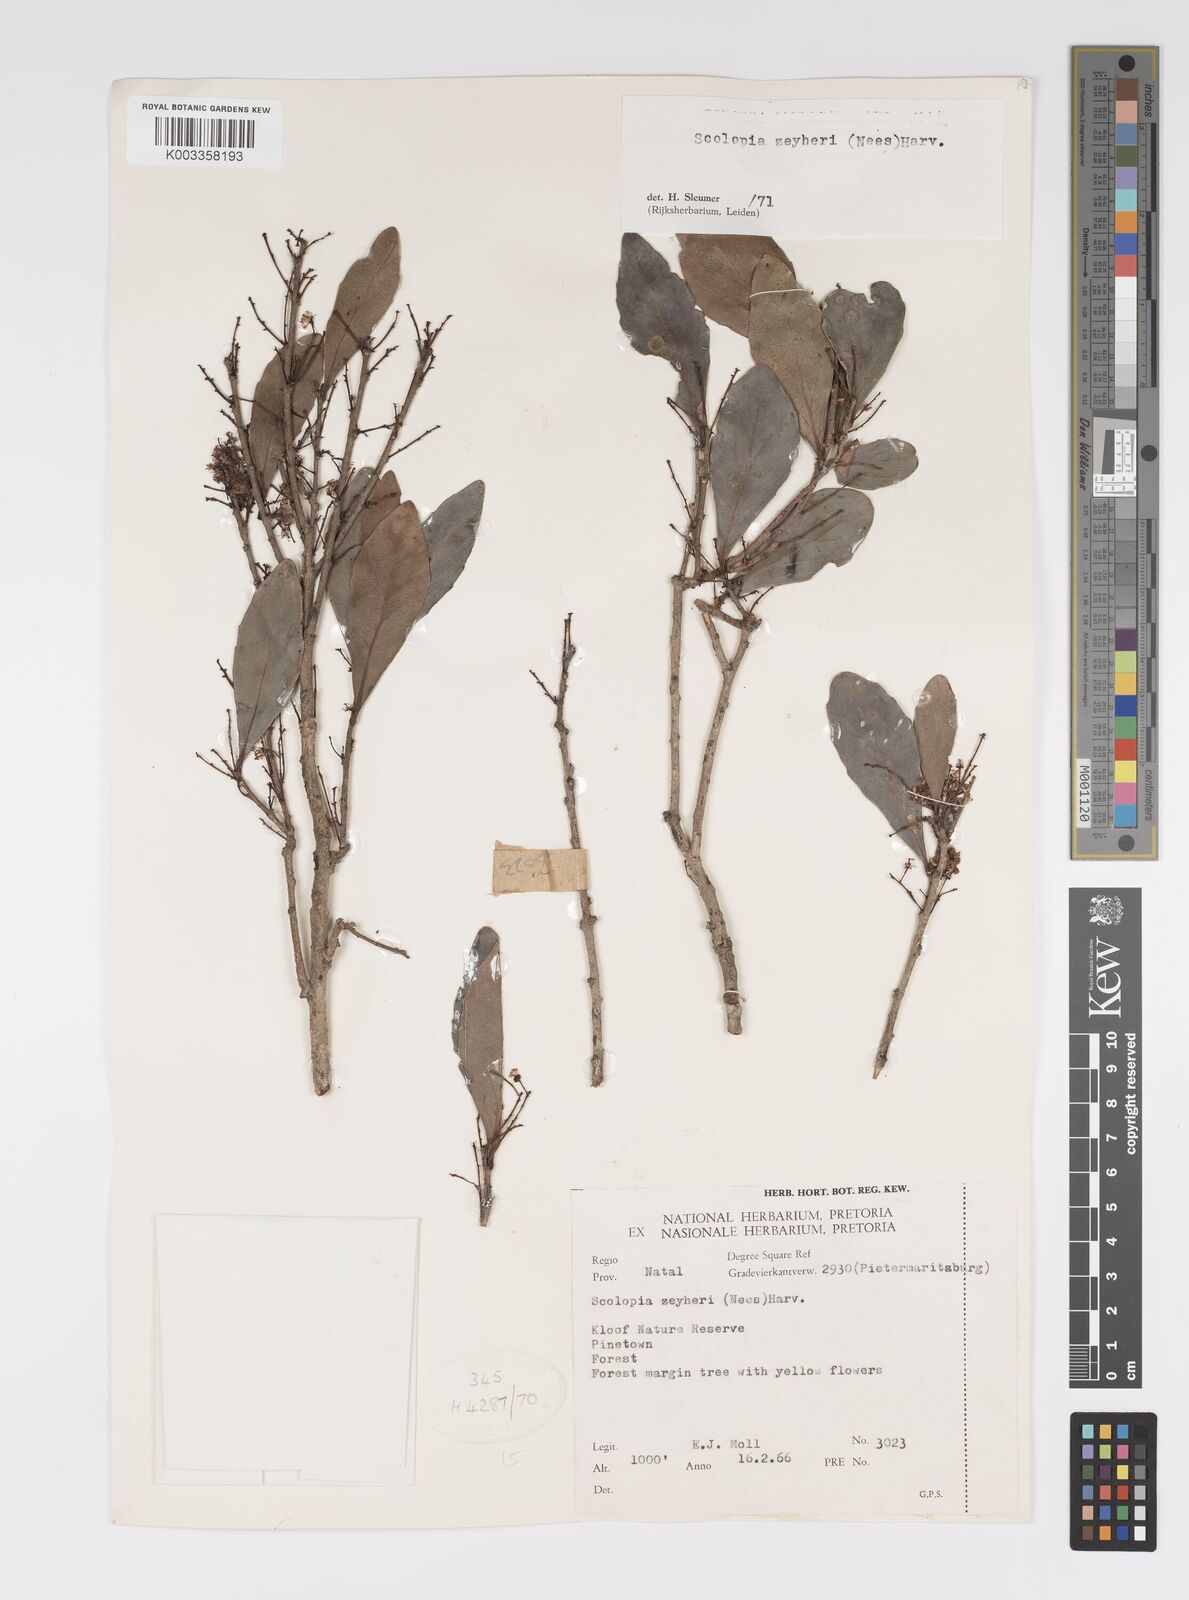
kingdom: Plantae
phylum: Tracheophyta
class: Magnoliopsida
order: Malpighiales
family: Salicaceae
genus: Scolopia
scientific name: Scolopia zeyheri
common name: Thorn pear
